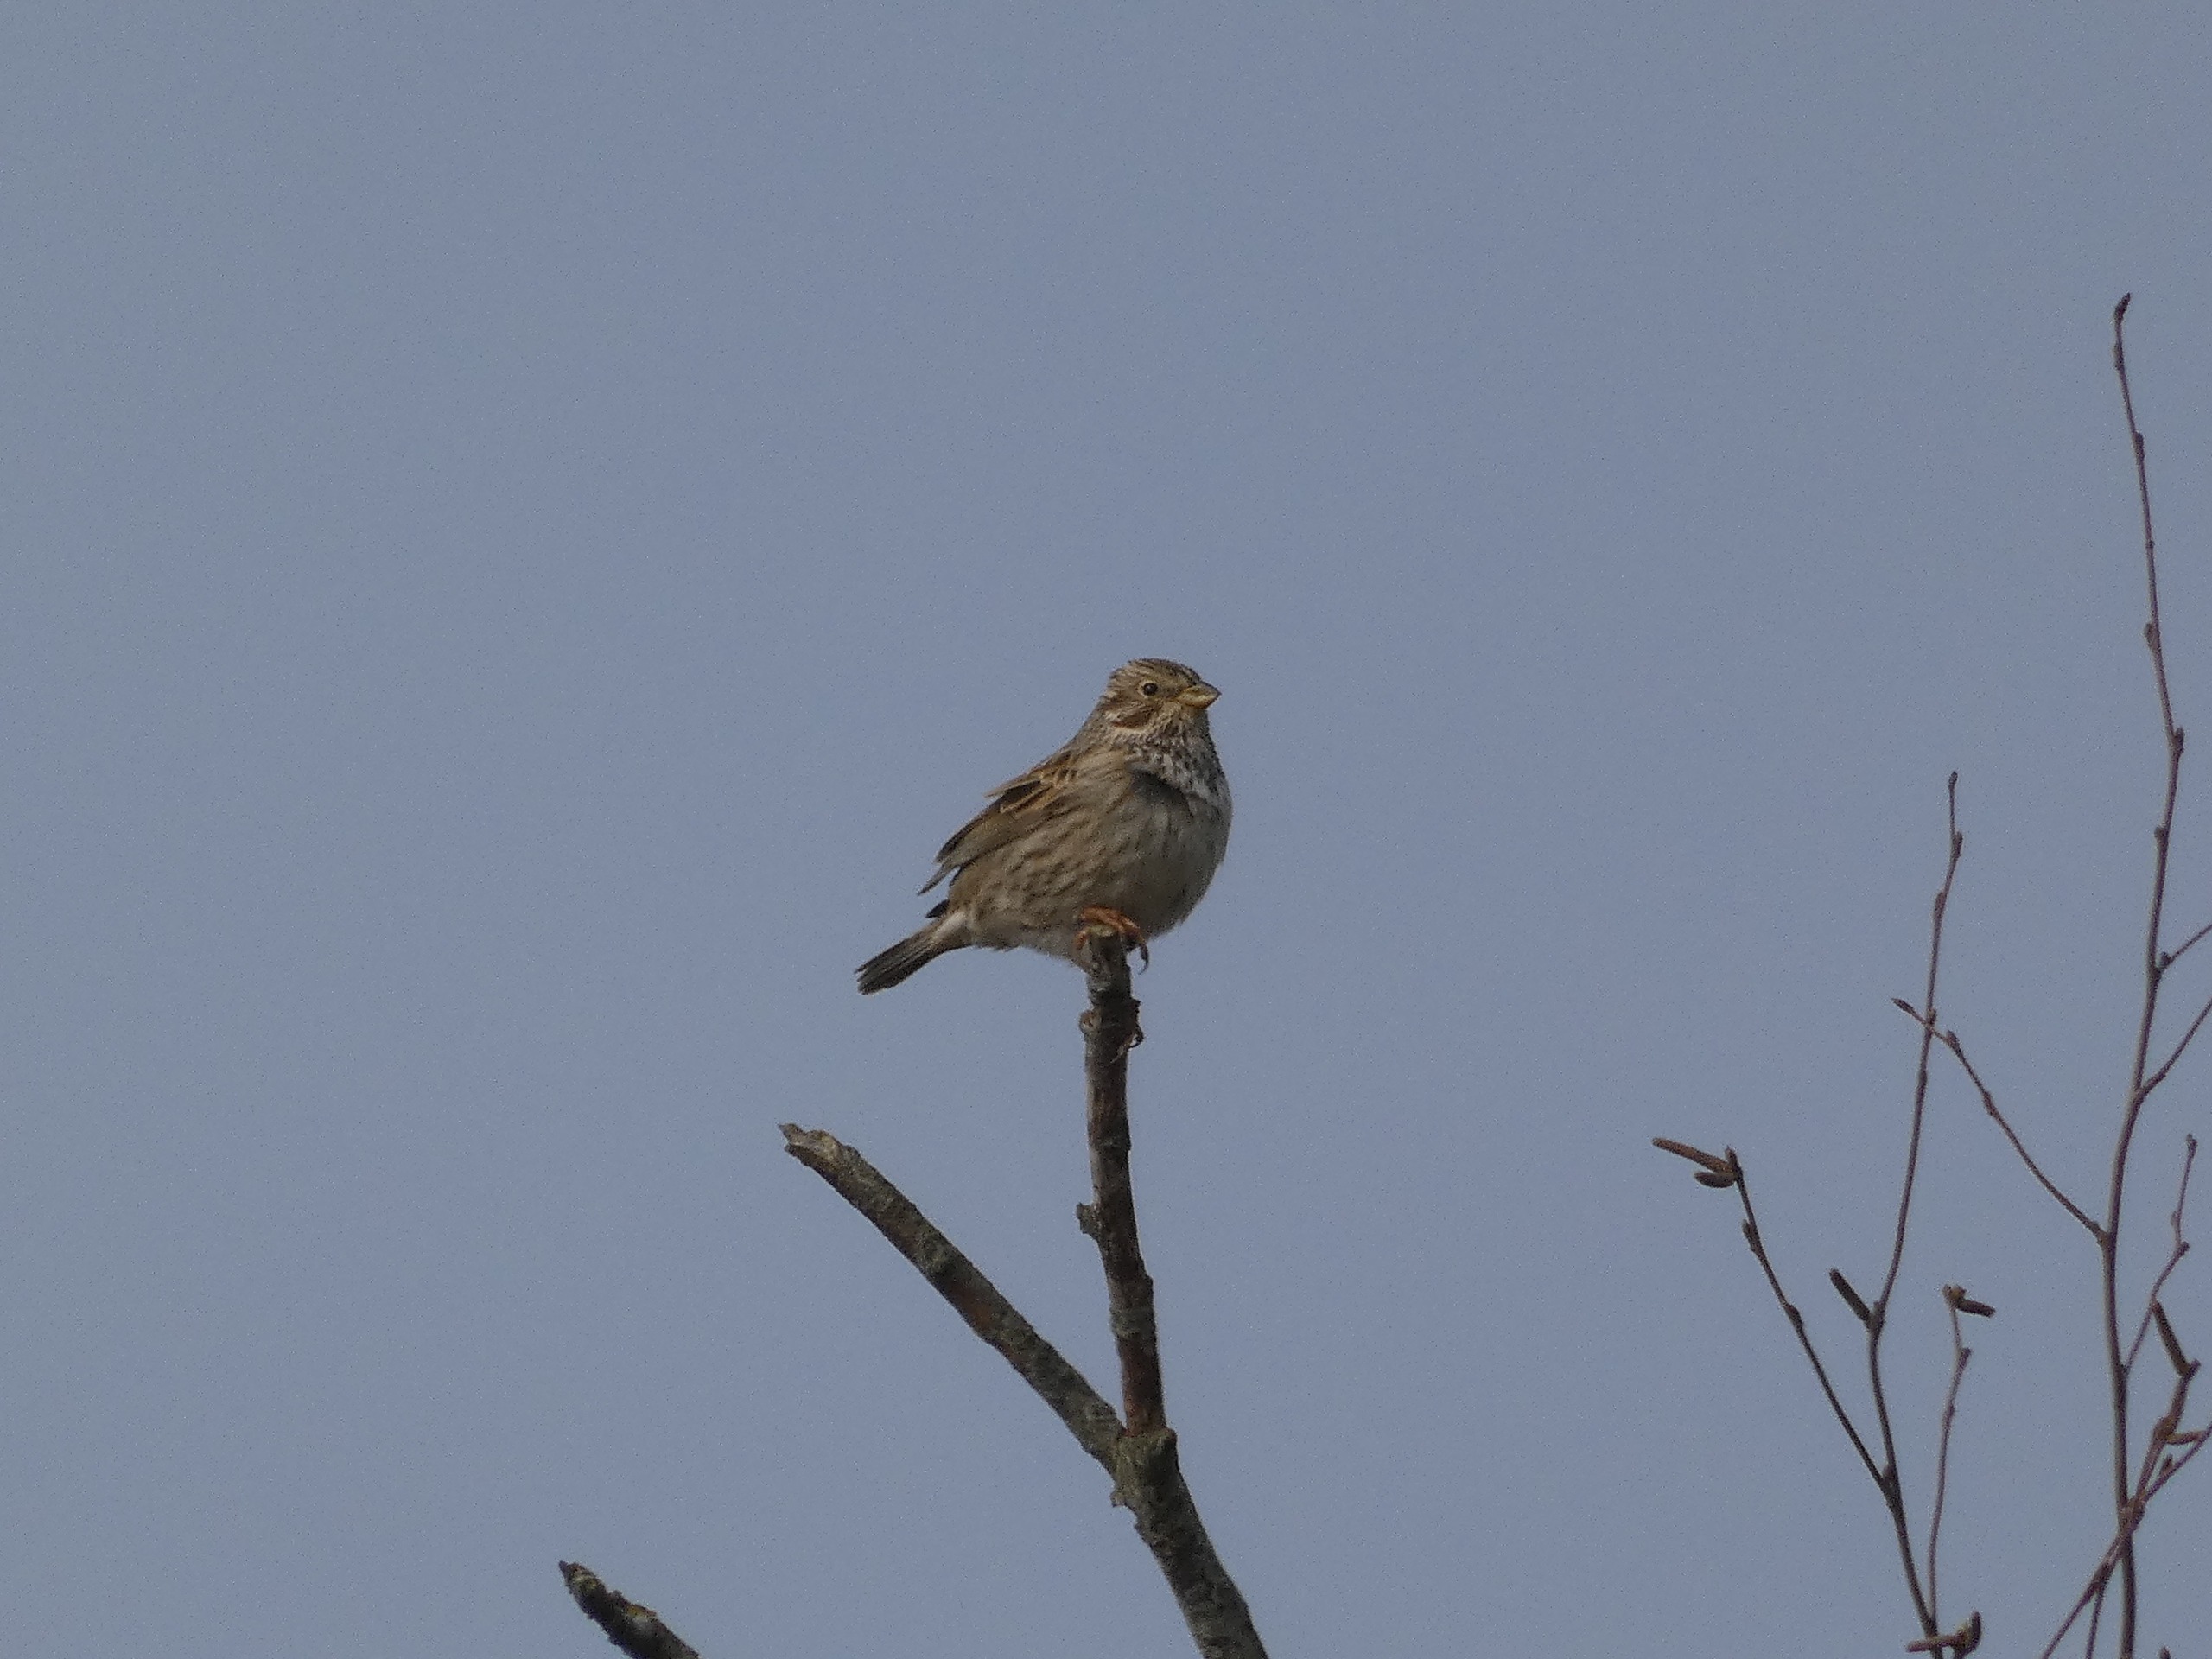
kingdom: Animalia
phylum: Chordata
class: Aves
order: Passeriformes
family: Emberizidae
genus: Emberiza
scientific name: Emberiza calandra
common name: Bomlærke
